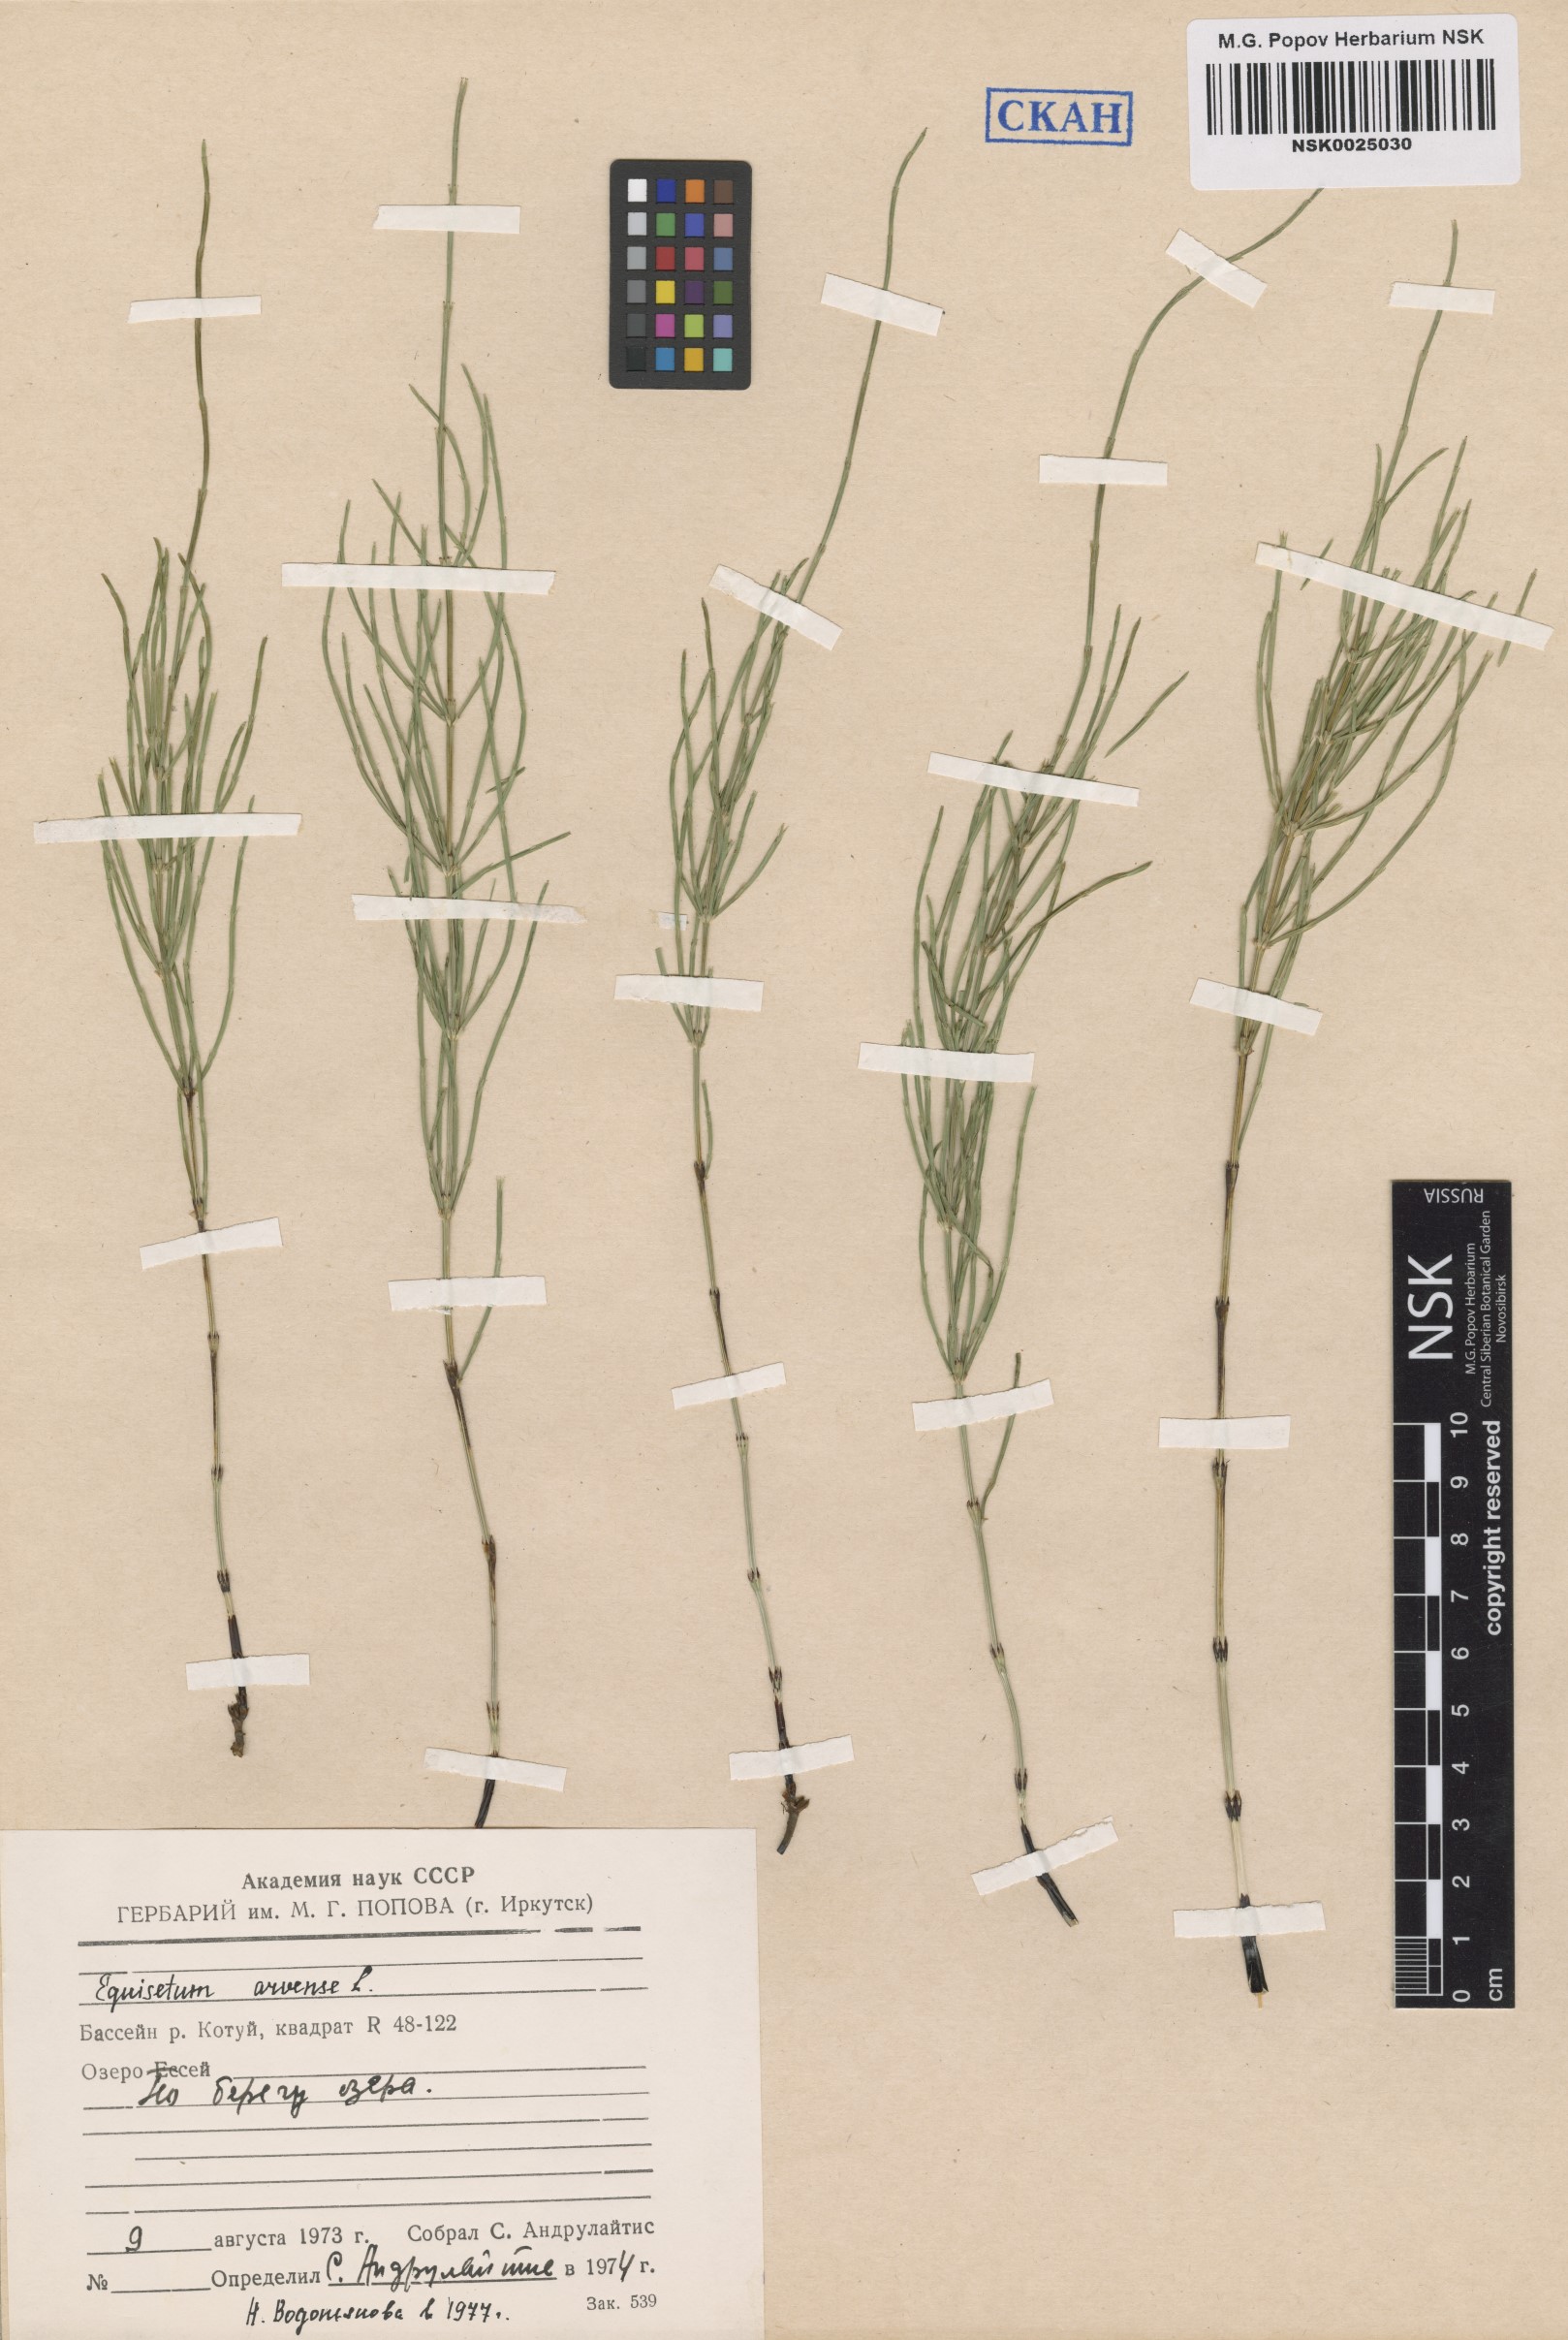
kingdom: Plantae
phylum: Tracheophyta
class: Polypodiopsida
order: Equisetales
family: Equisetaceae
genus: Equisetum
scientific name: Equisetum arvense
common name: Field horsetail
